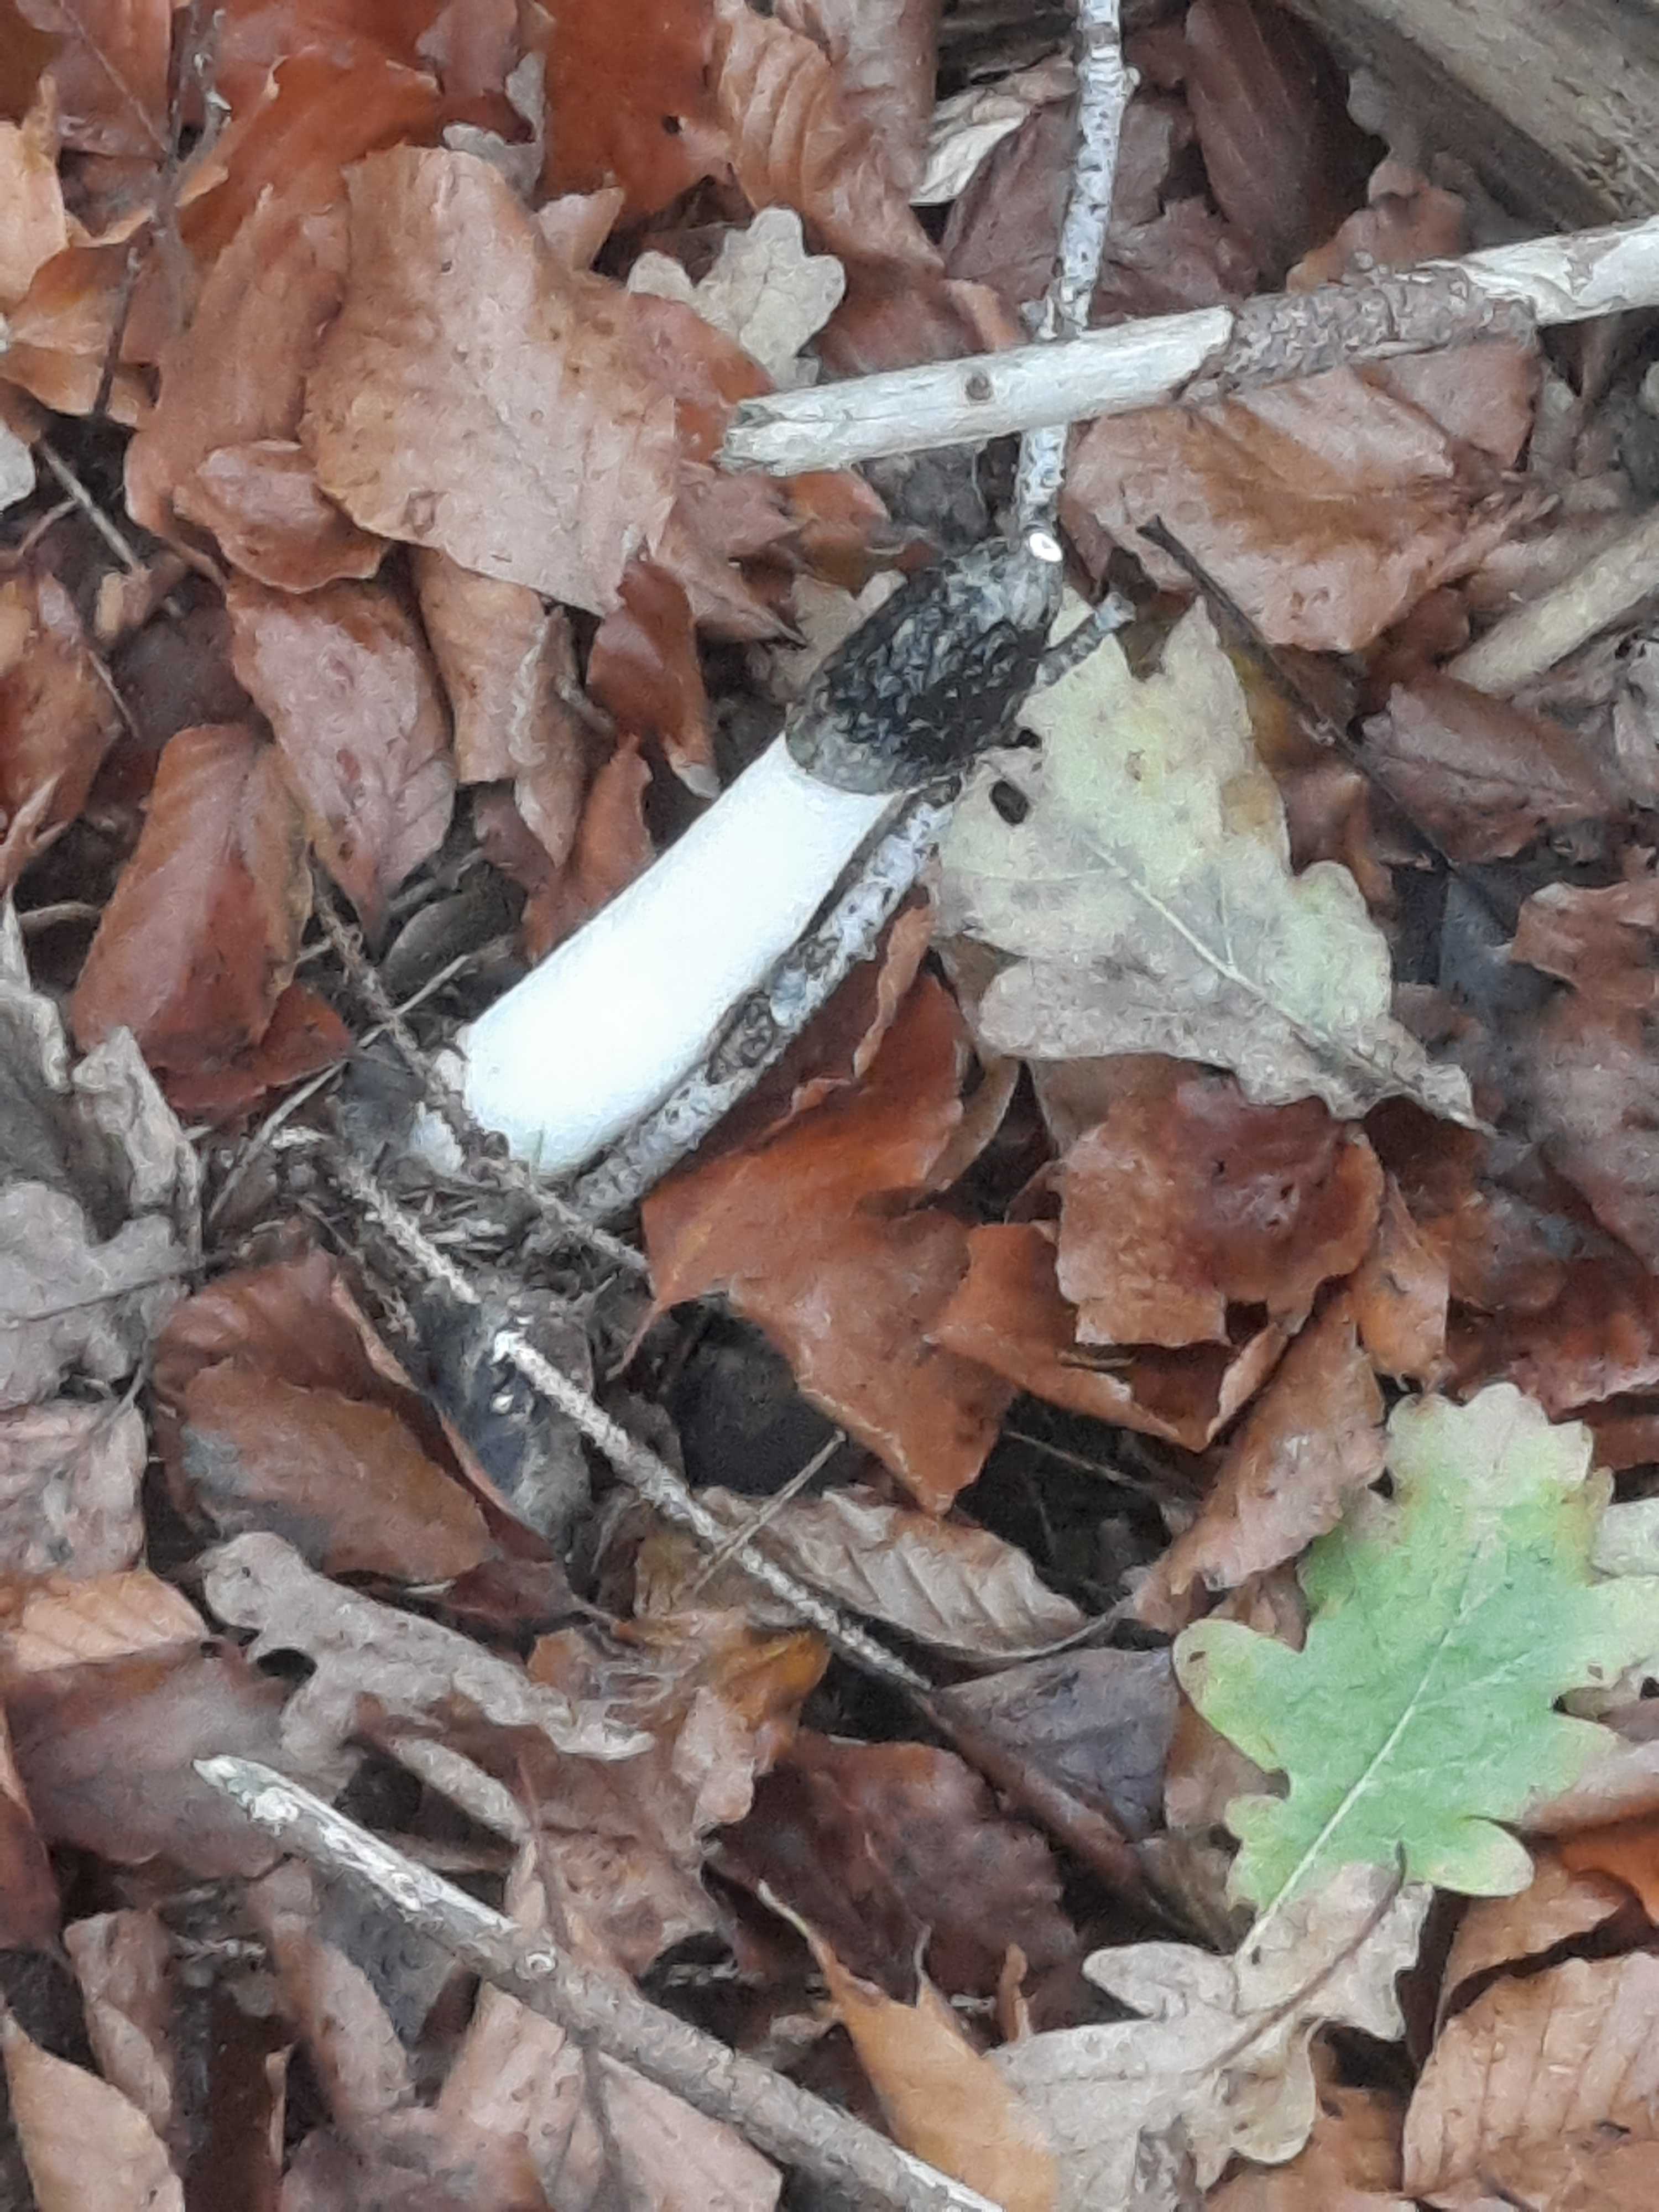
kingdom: Fungi
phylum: Basidiomycota
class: Agaricomycetes
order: Phallales
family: Phallaceae
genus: Phallus
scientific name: Phallus impudicus
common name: almindelig stinksvamp
